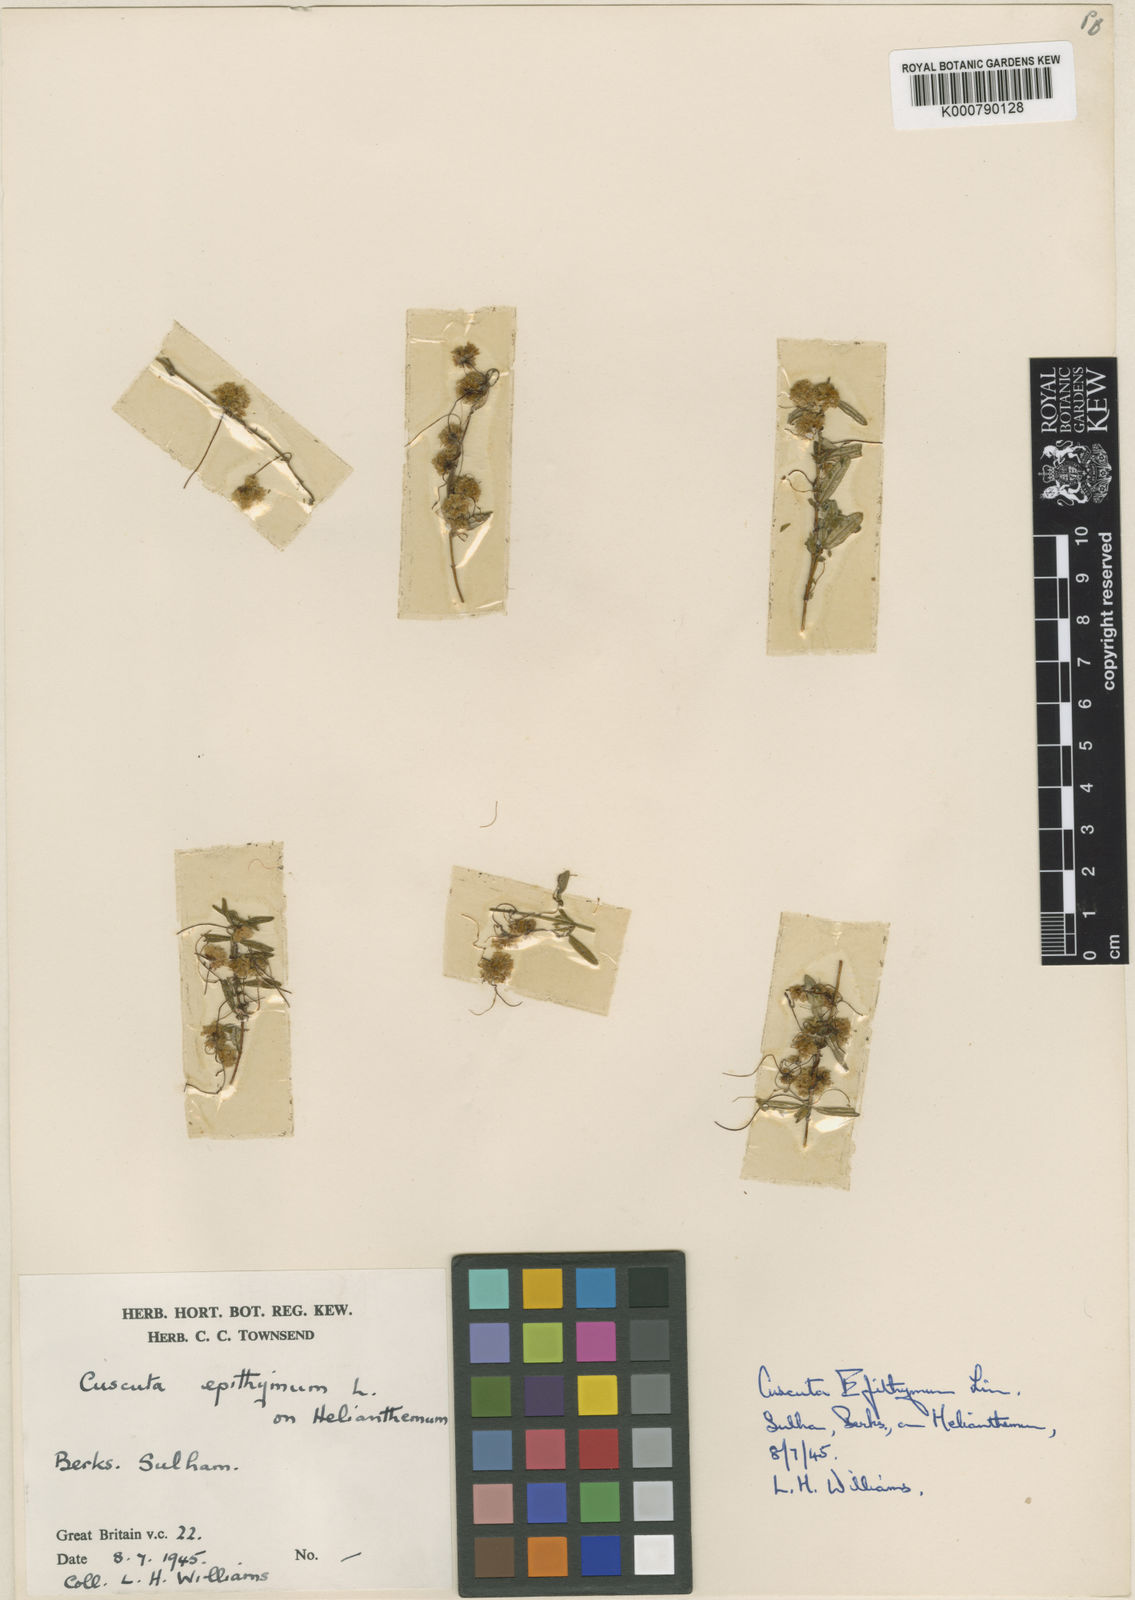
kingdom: Plantae
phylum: Tracheophyta
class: Magnoliopsida
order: Solanales
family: Convolvulaceae
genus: Cuscuta
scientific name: Cuscuta epithymum
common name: Clover dodder
